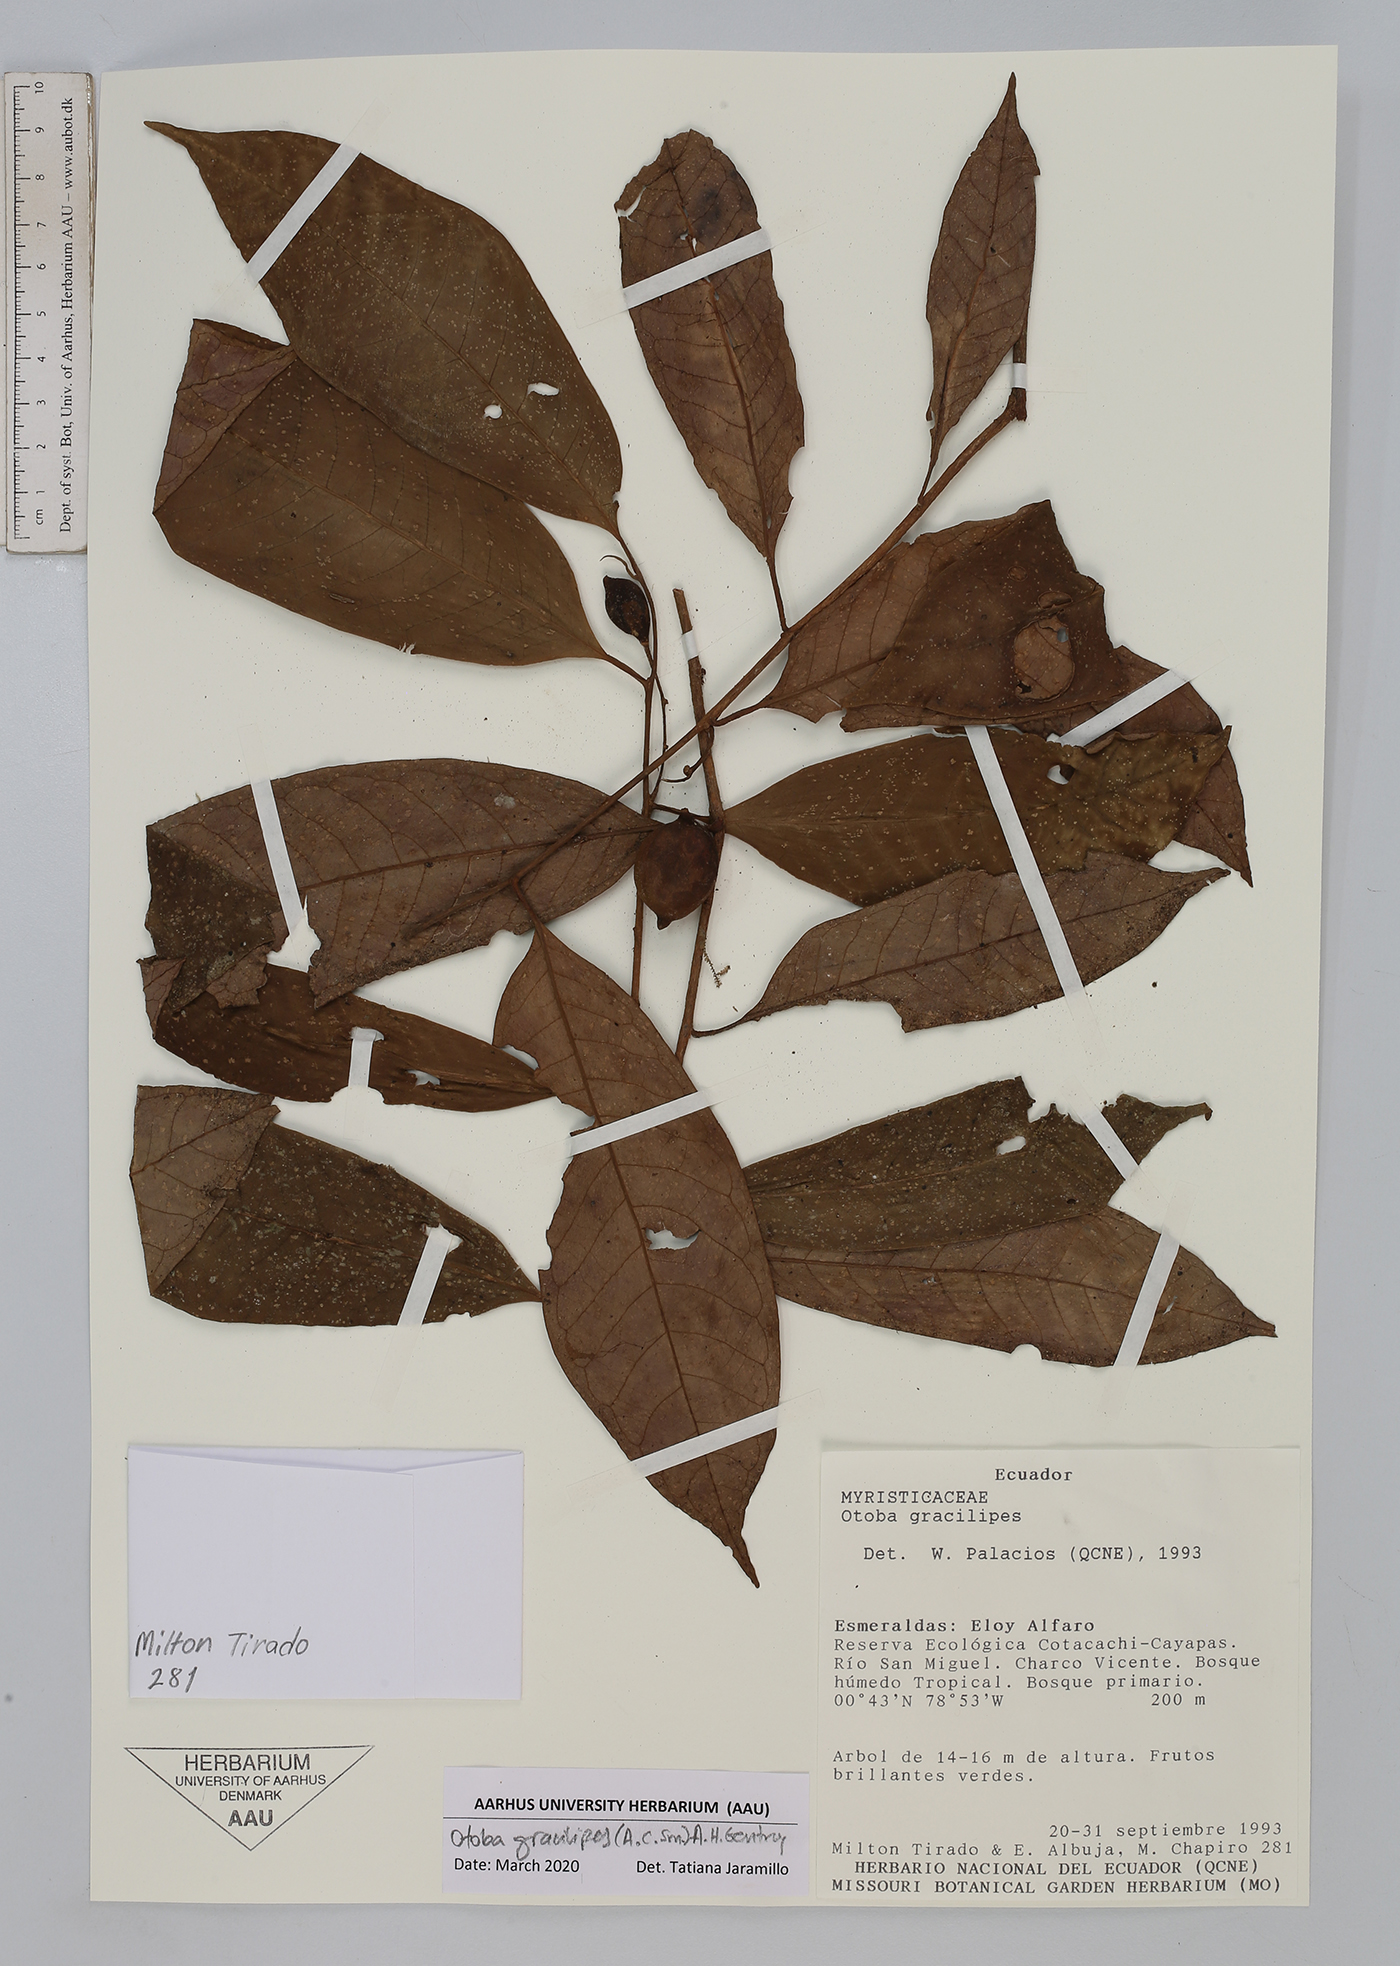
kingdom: Plantae
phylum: Tracheophyta
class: Magnoliopsida
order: Magnoliales
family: Myristicaceae
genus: Otoba
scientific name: Otoba gracilipes
